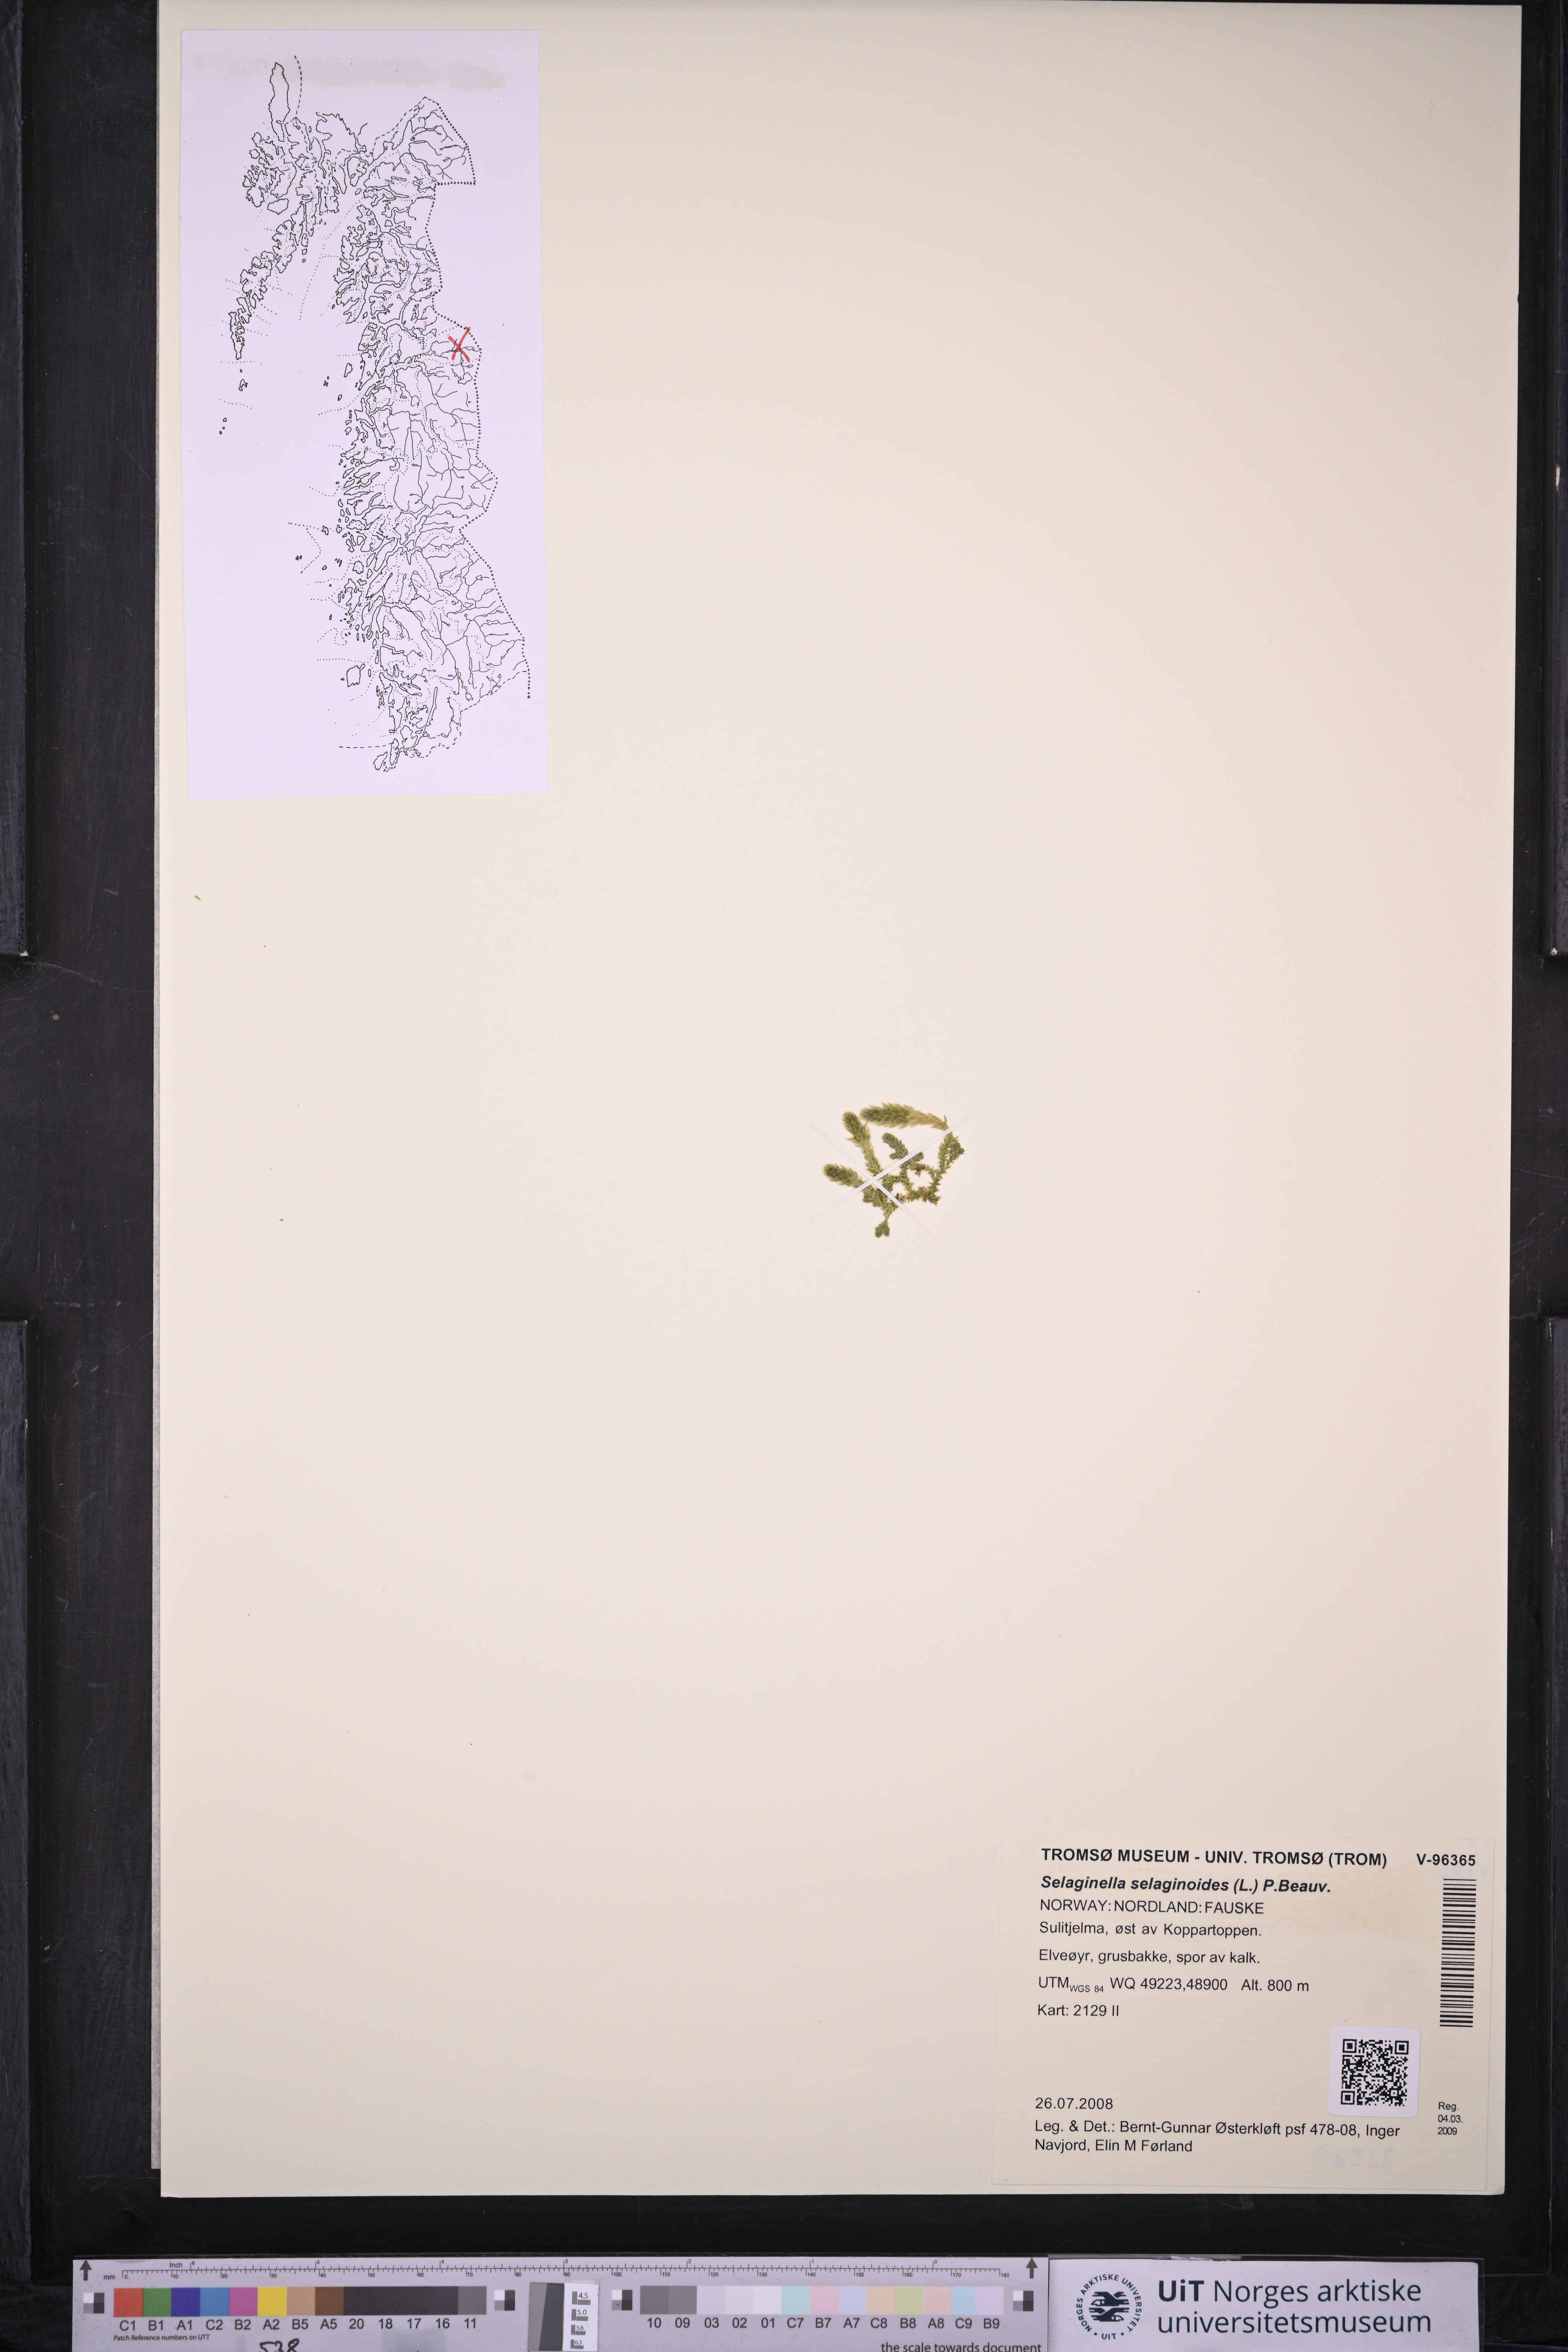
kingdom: Plantae
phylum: Tracheophyta
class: Lycopodiopsida
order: Selaginellales
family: Selaginellaceae
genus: Selaginella
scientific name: Selaginella selaginoides
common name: Prickly mountain-moss
